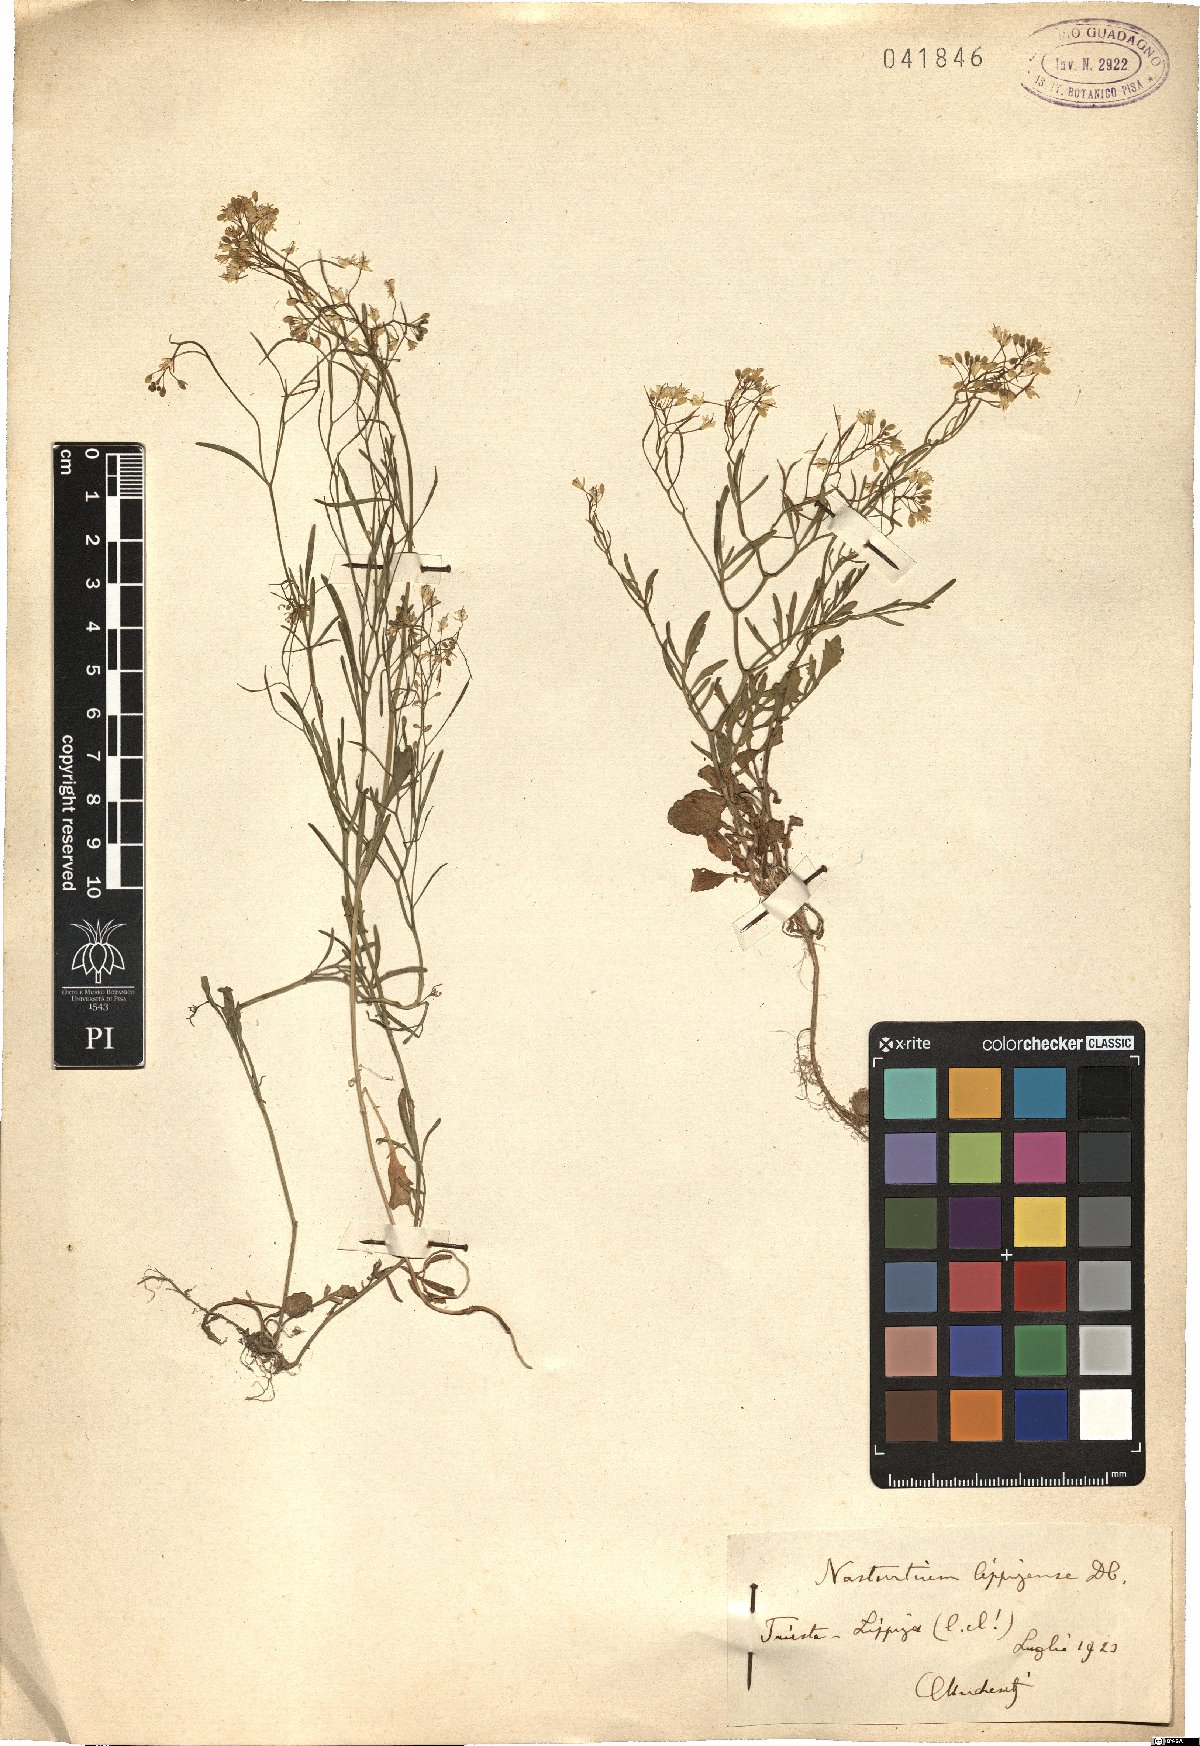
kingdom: Plantae
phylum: Tracheophyta
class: Magnoliopsida
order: Brassicales
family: Brassicaceae
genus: Rorippa
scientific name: Rorippa lippizensis
